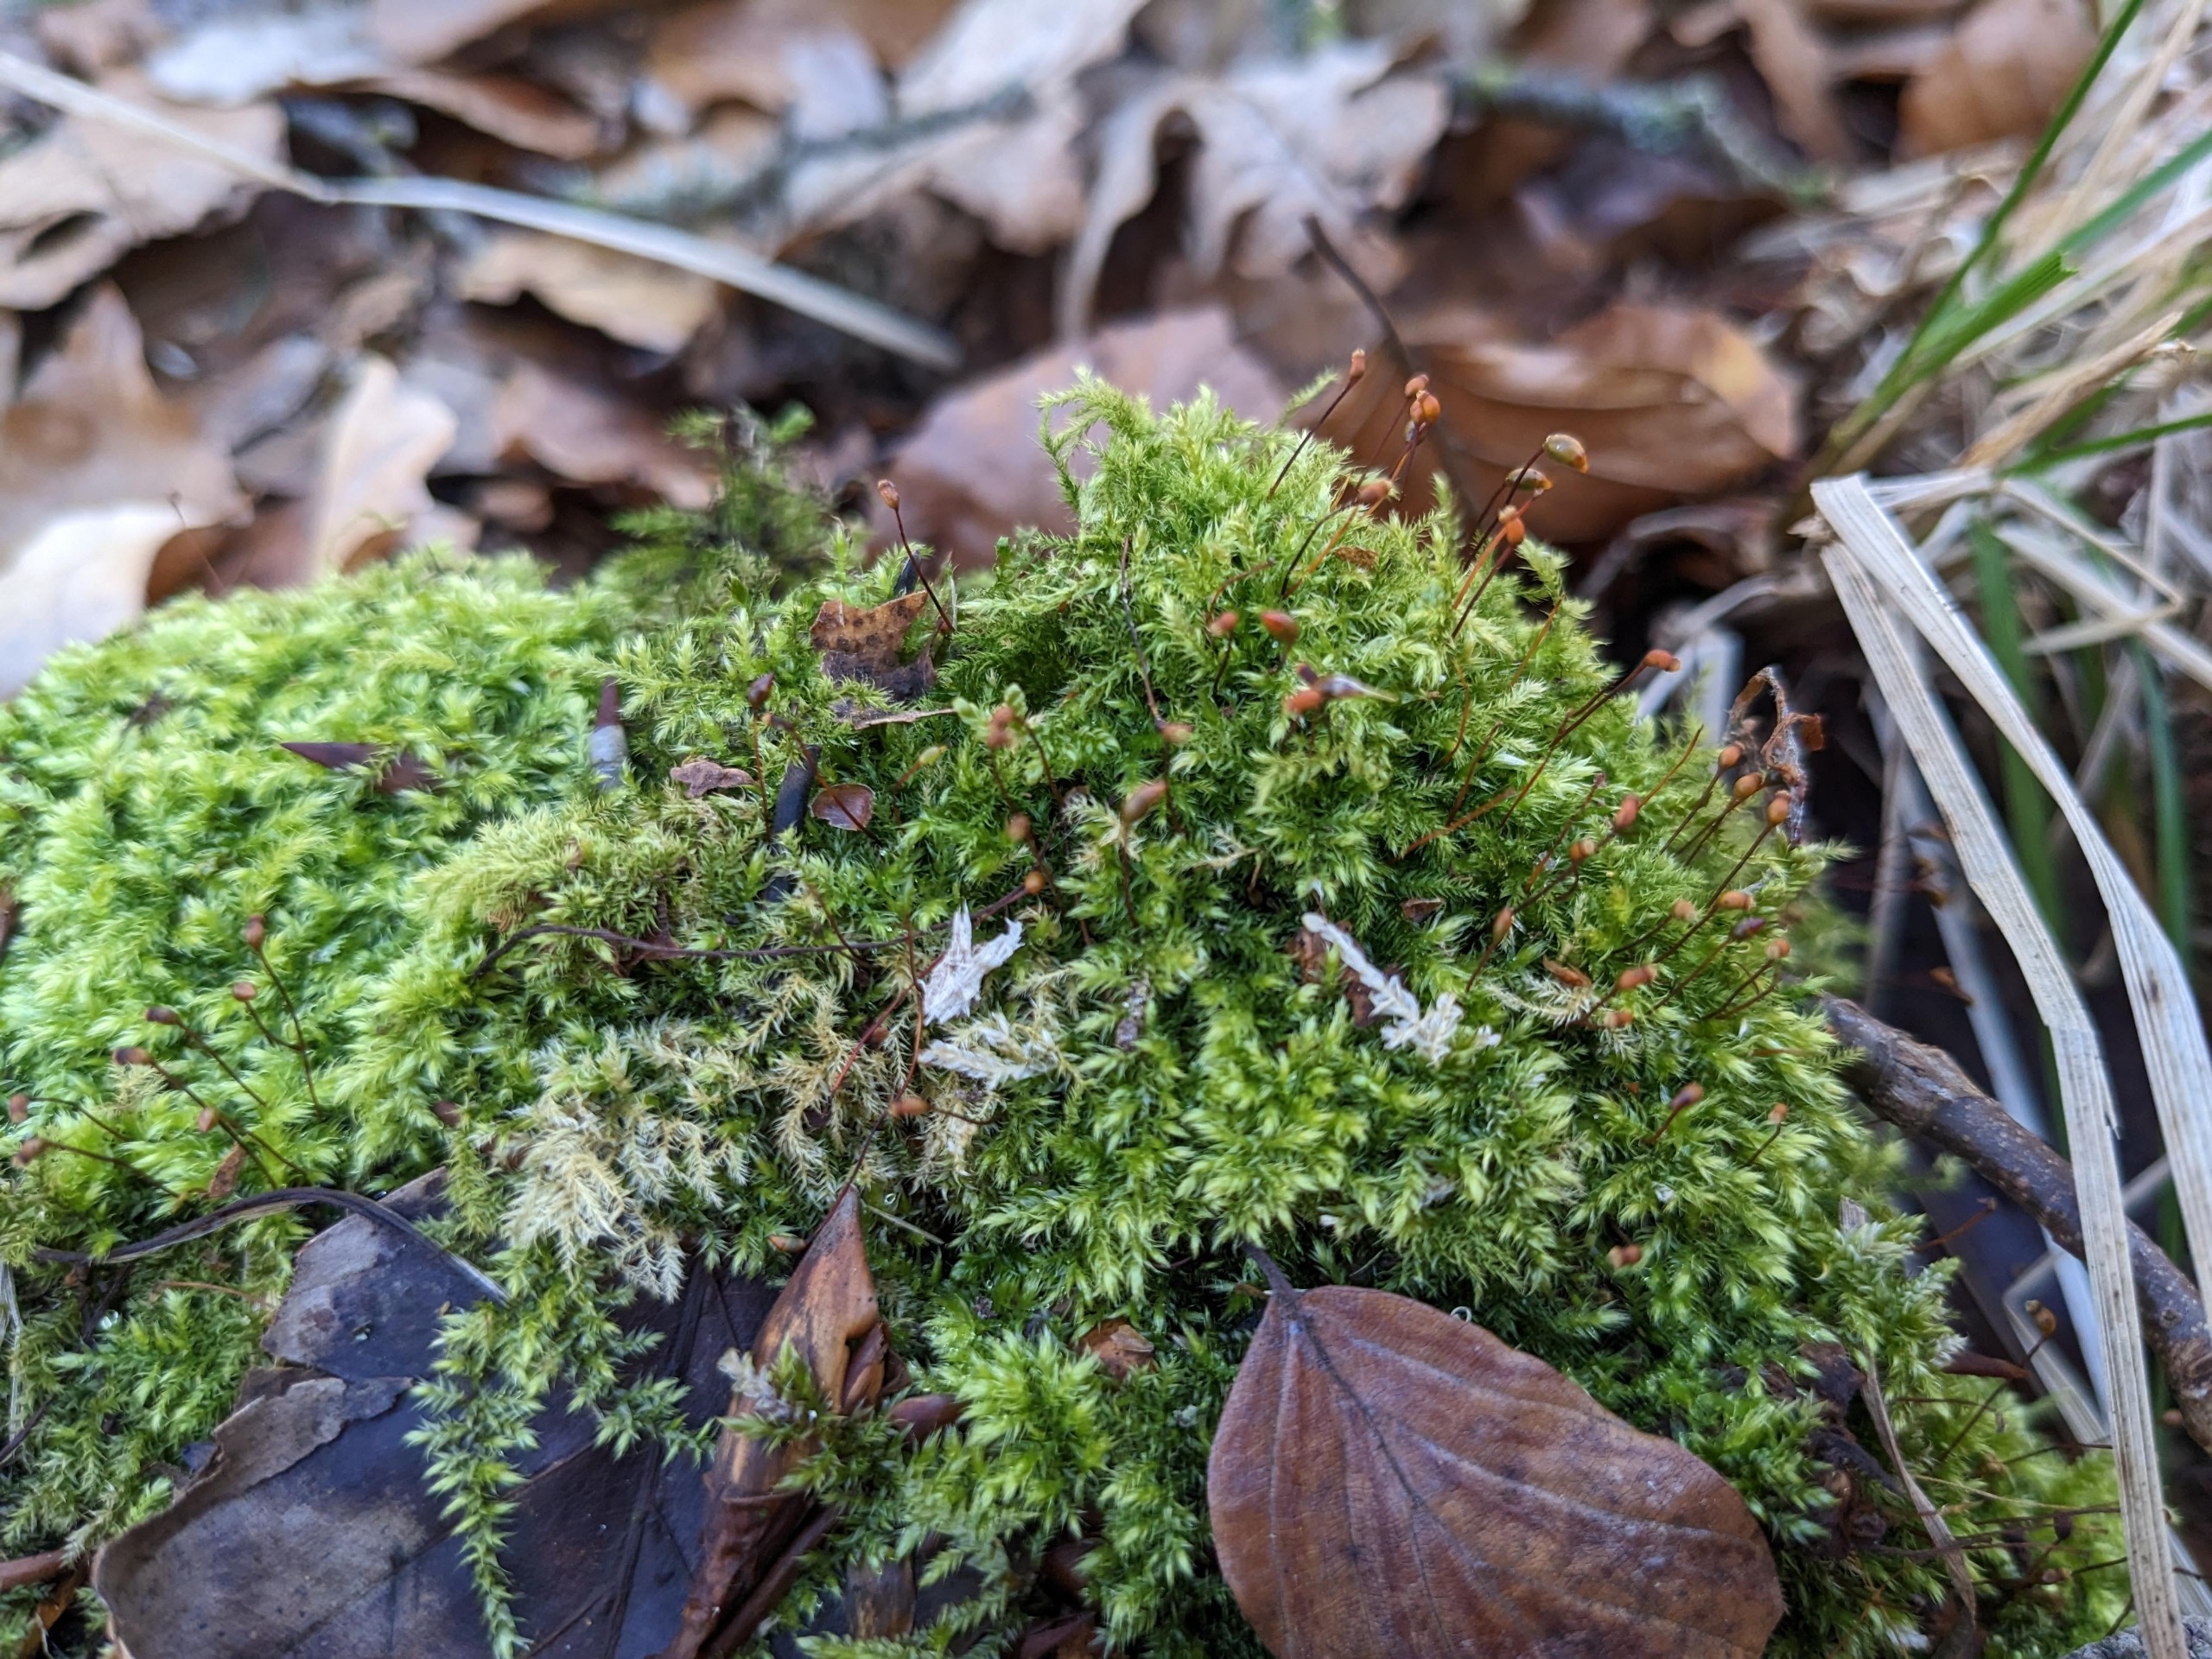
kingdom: Plantae
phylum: Bryophyta
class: Bryopsida
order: Hypnales
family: Brachytheciaceae
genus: Brachytheciastrum
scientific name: Brachytheciastrum velutinum
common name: Fløjls-kortkapsel
